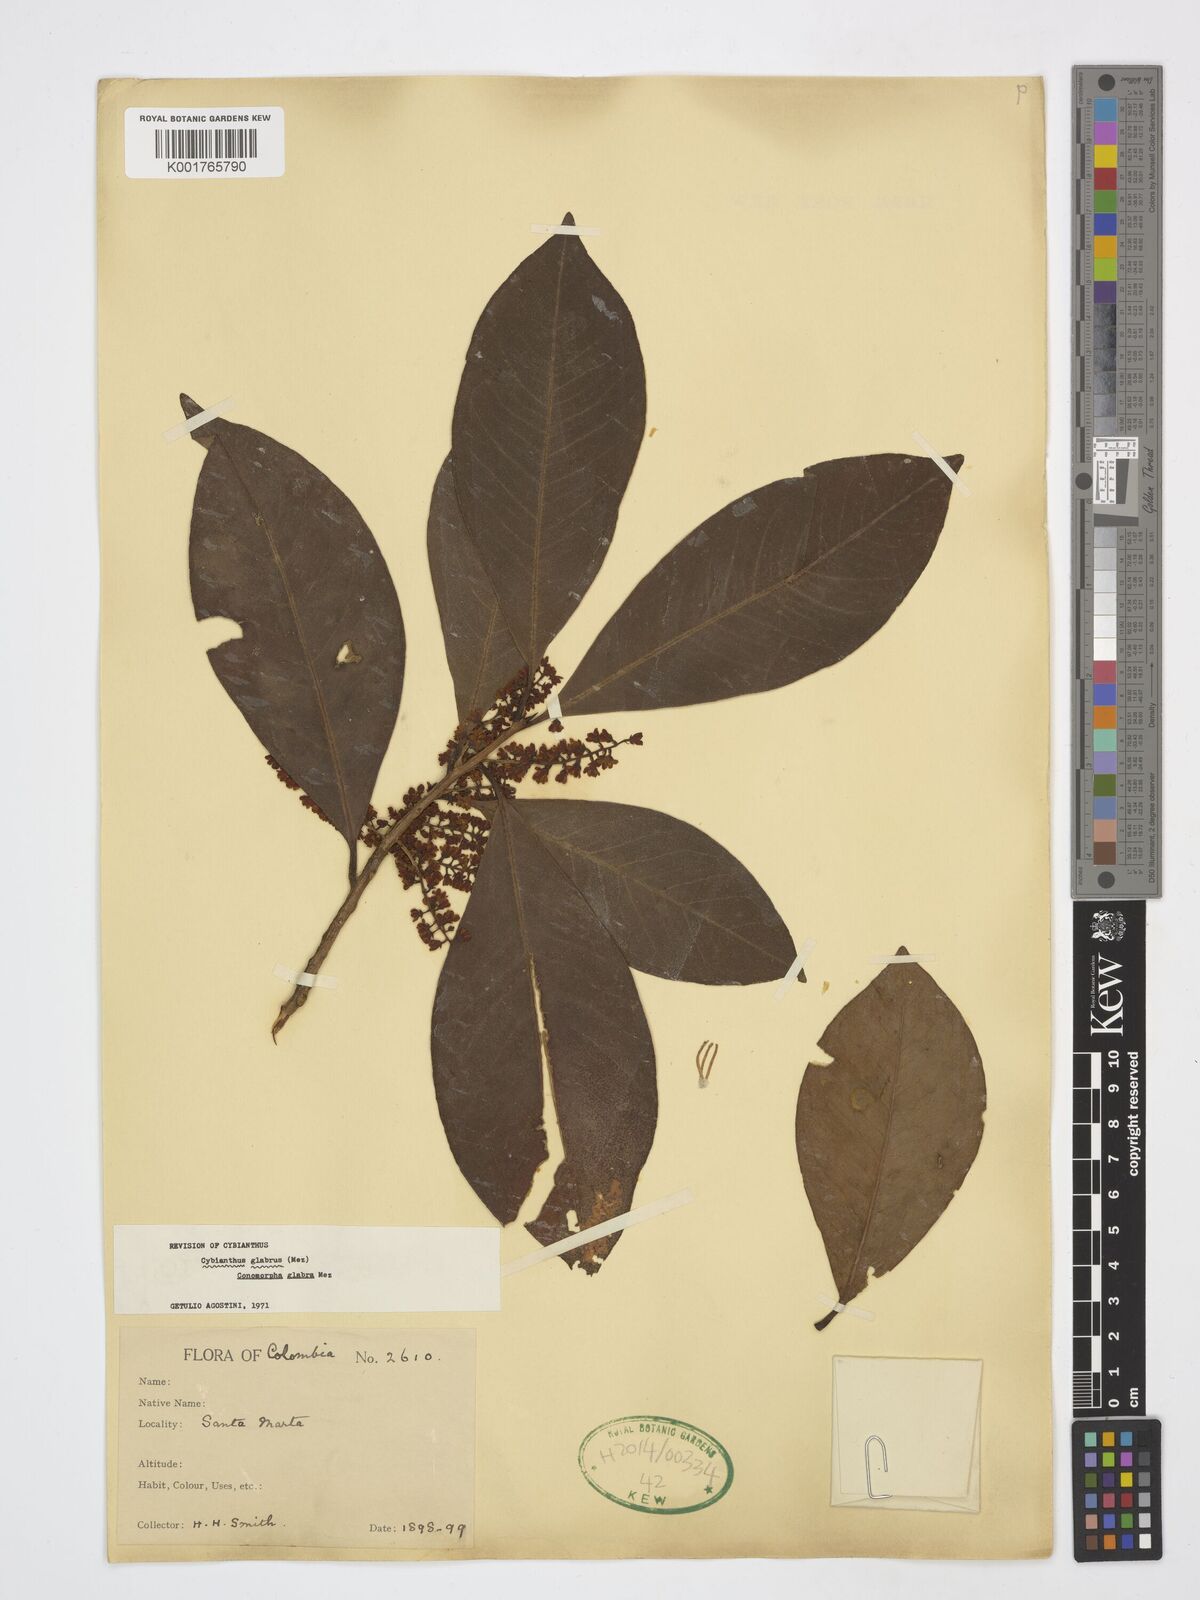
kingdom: Plantae
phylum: Tracheophyta
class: Magnoliopsida
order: Ericales
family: Primulaceae
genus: Cybianthus
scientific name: Cybianthus glaber
